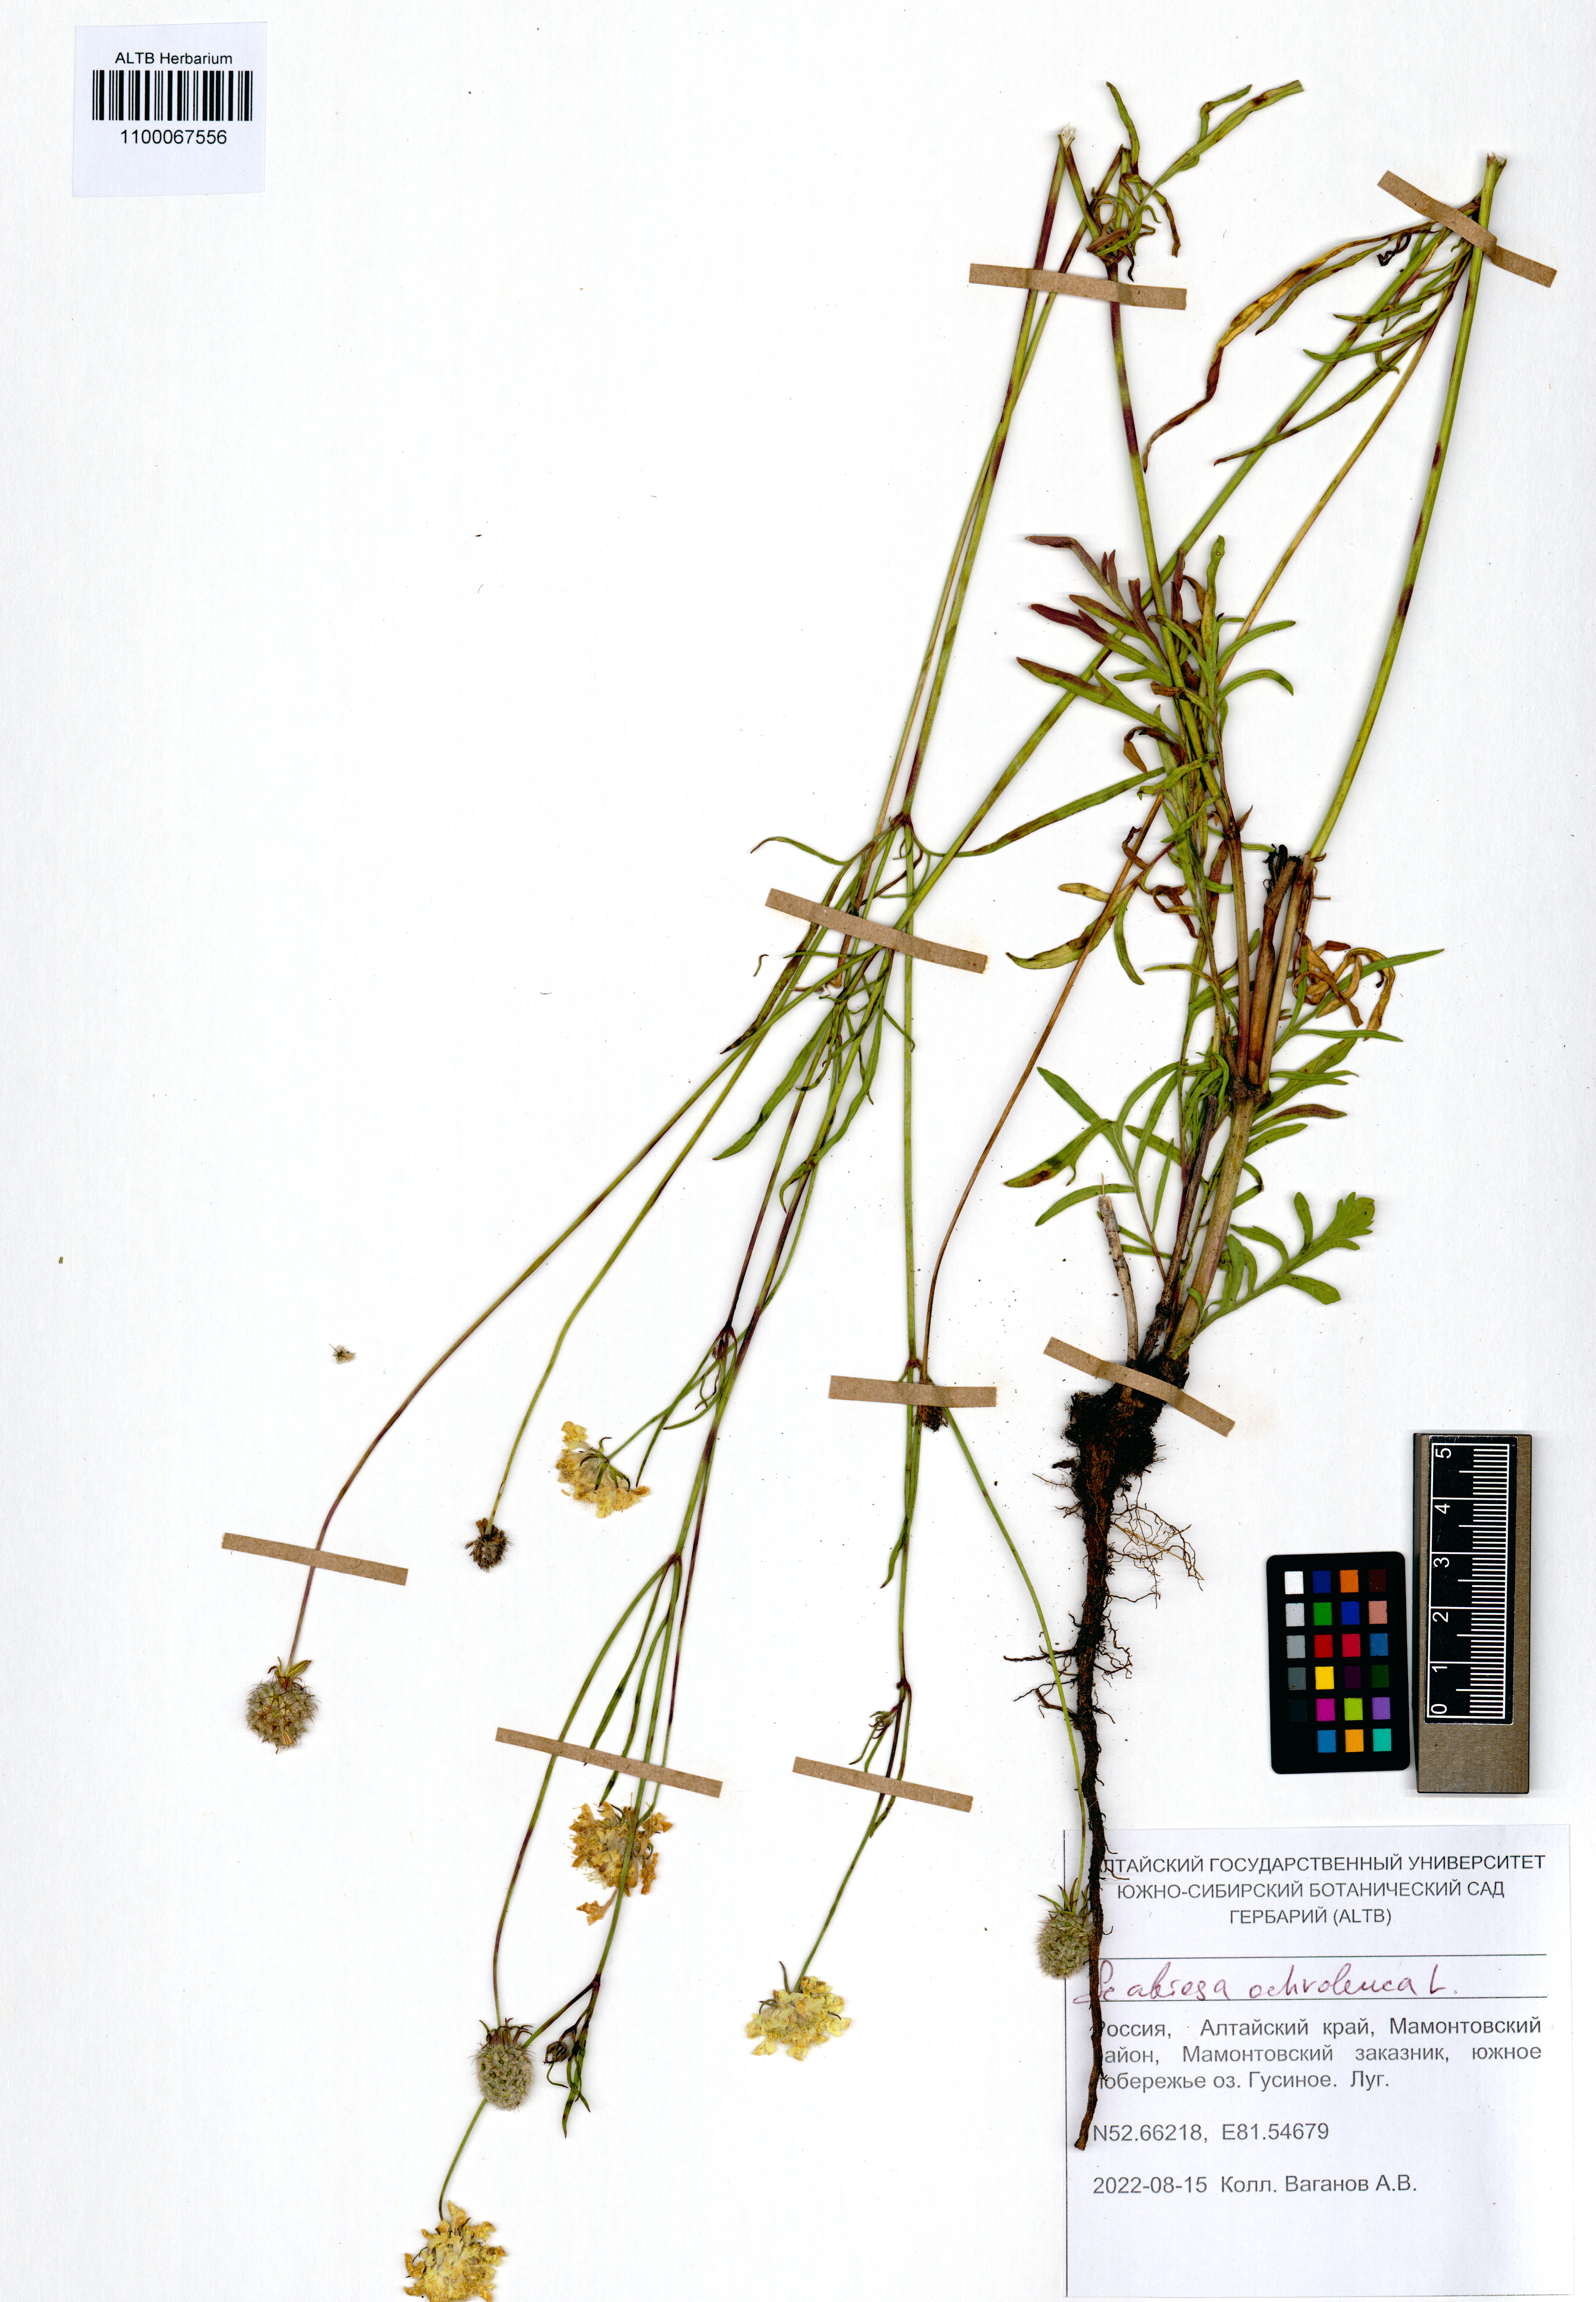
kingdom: Plantae
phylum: Tracheophyta
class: Magnoliopsida
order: Dipsacales
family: Caprifoliaceae
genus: Scabiosa
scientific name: Scabiosa ochroleuca
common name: Cream pincushions
